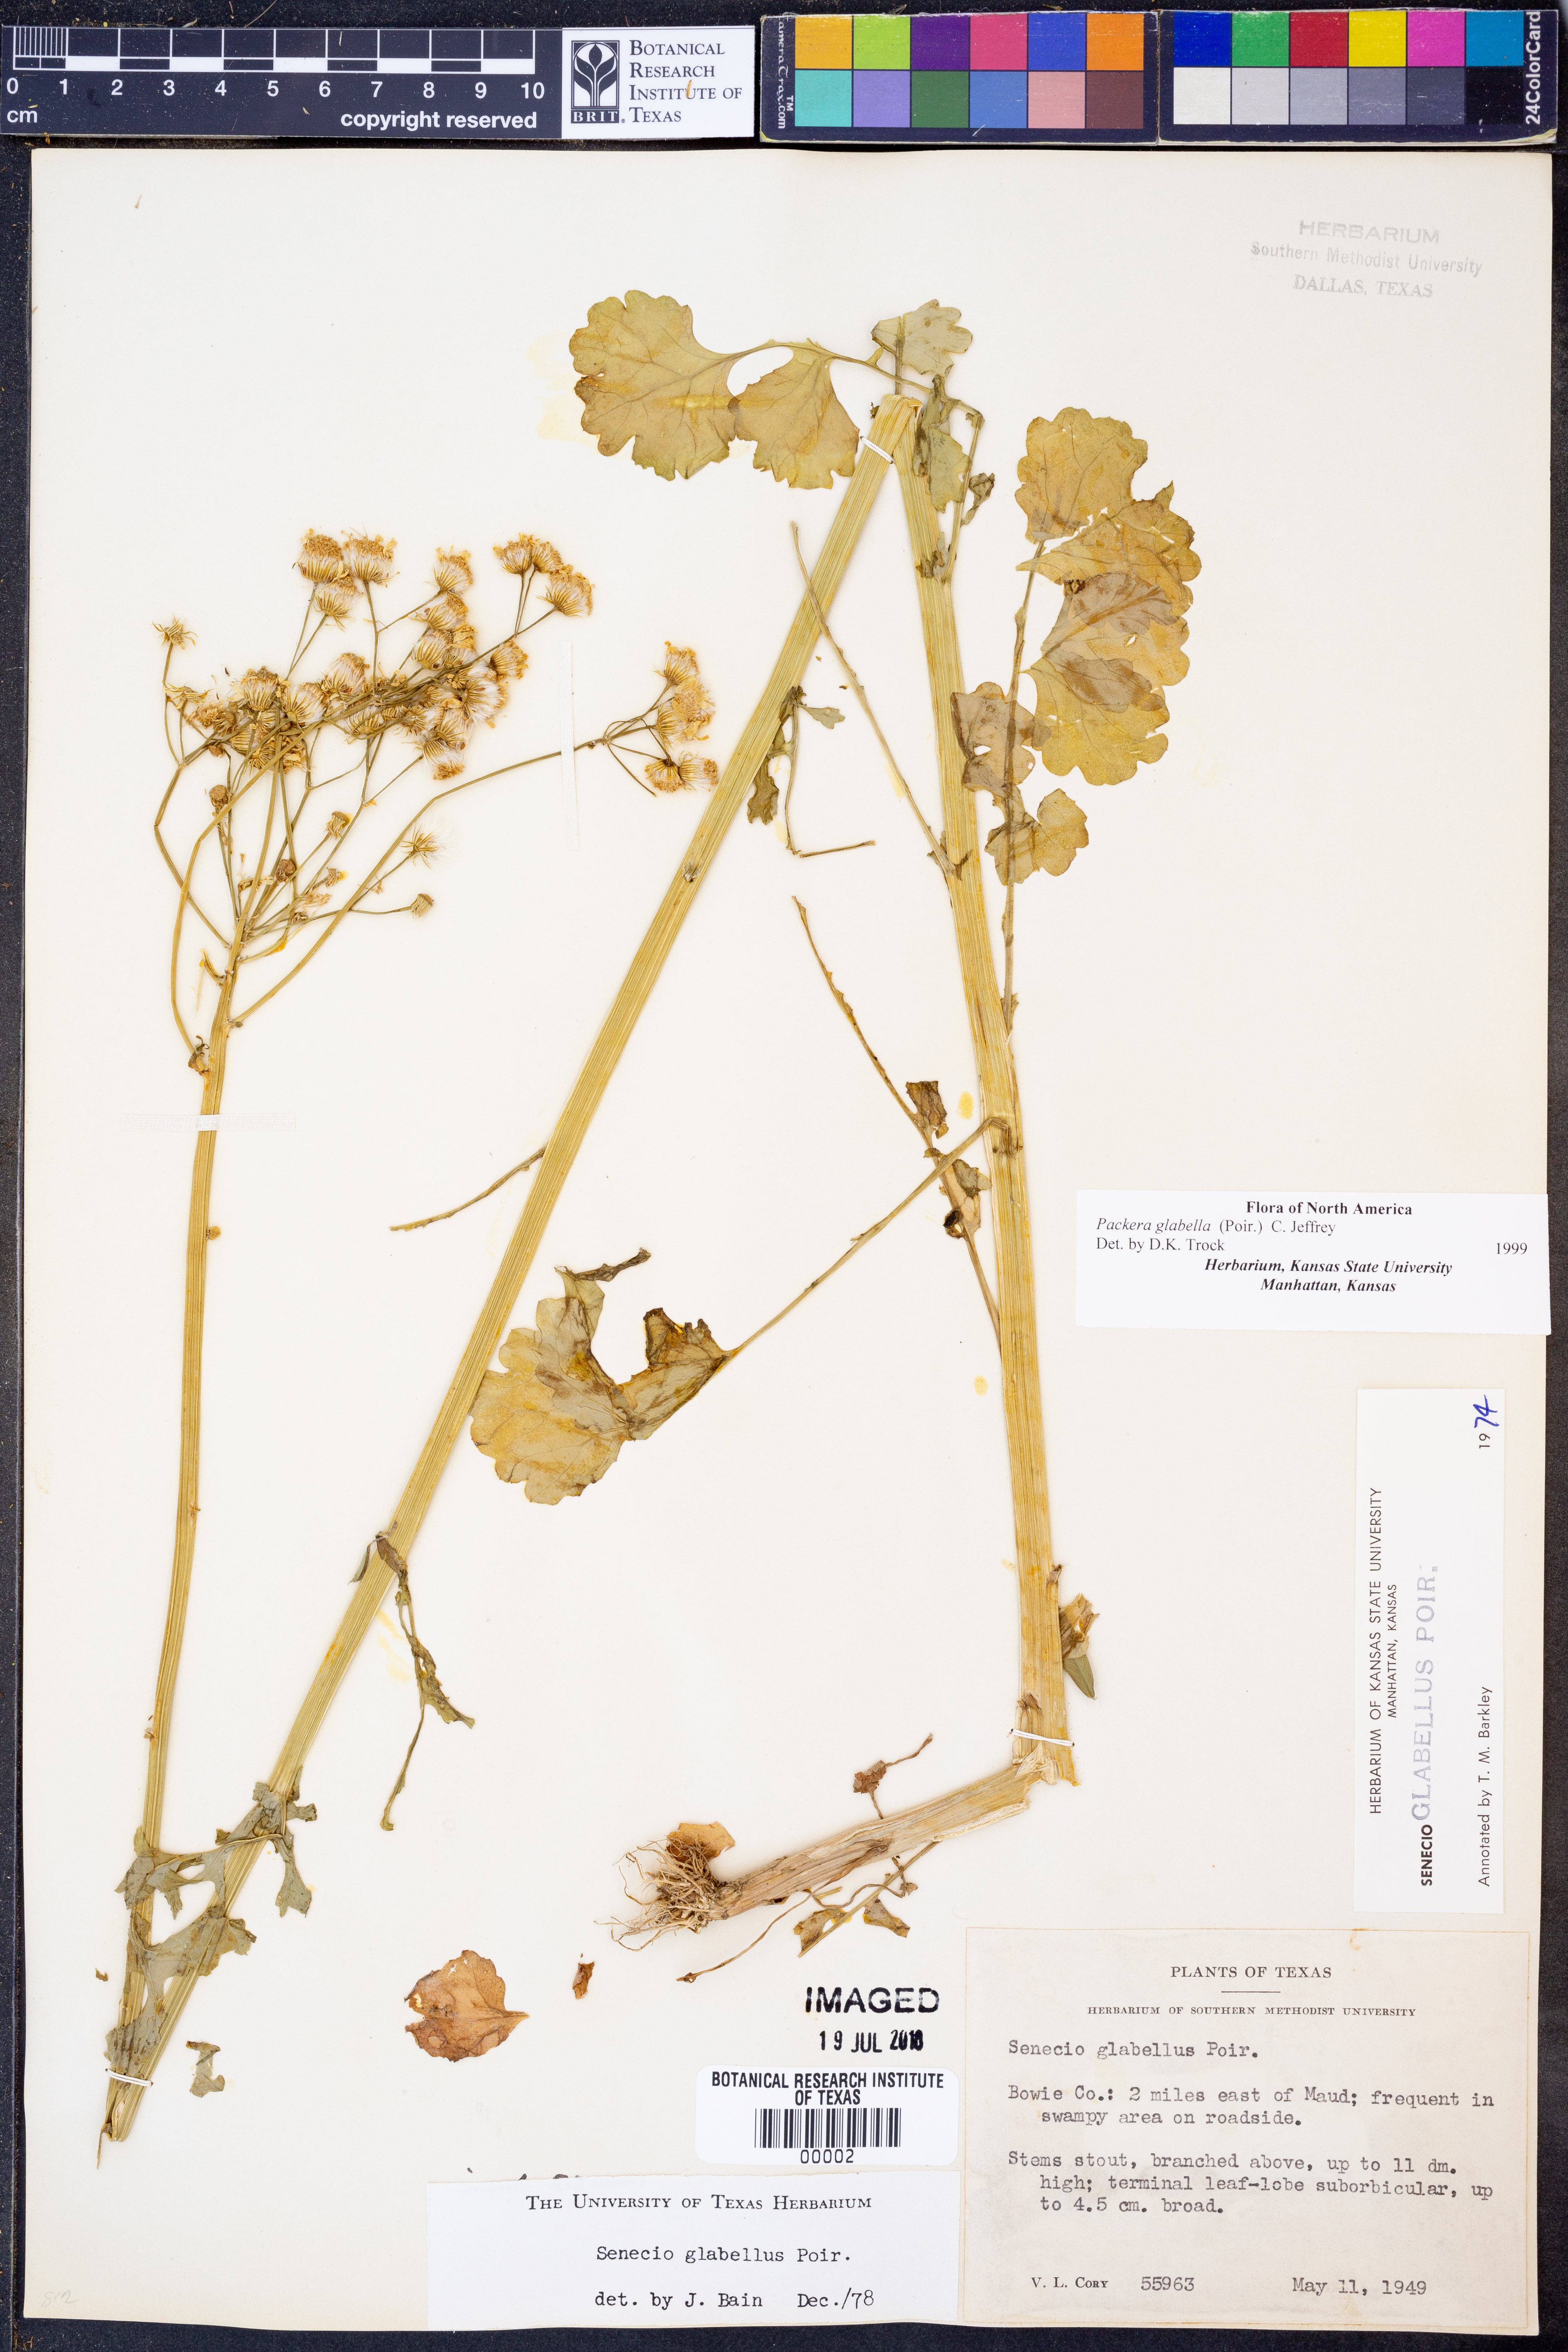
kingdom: Plantae
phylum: Tracheophyta
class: Magnoliopsida
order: Asterales
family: Asteraceae
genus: Packera
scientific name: Packera glabella
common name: Butterweed
